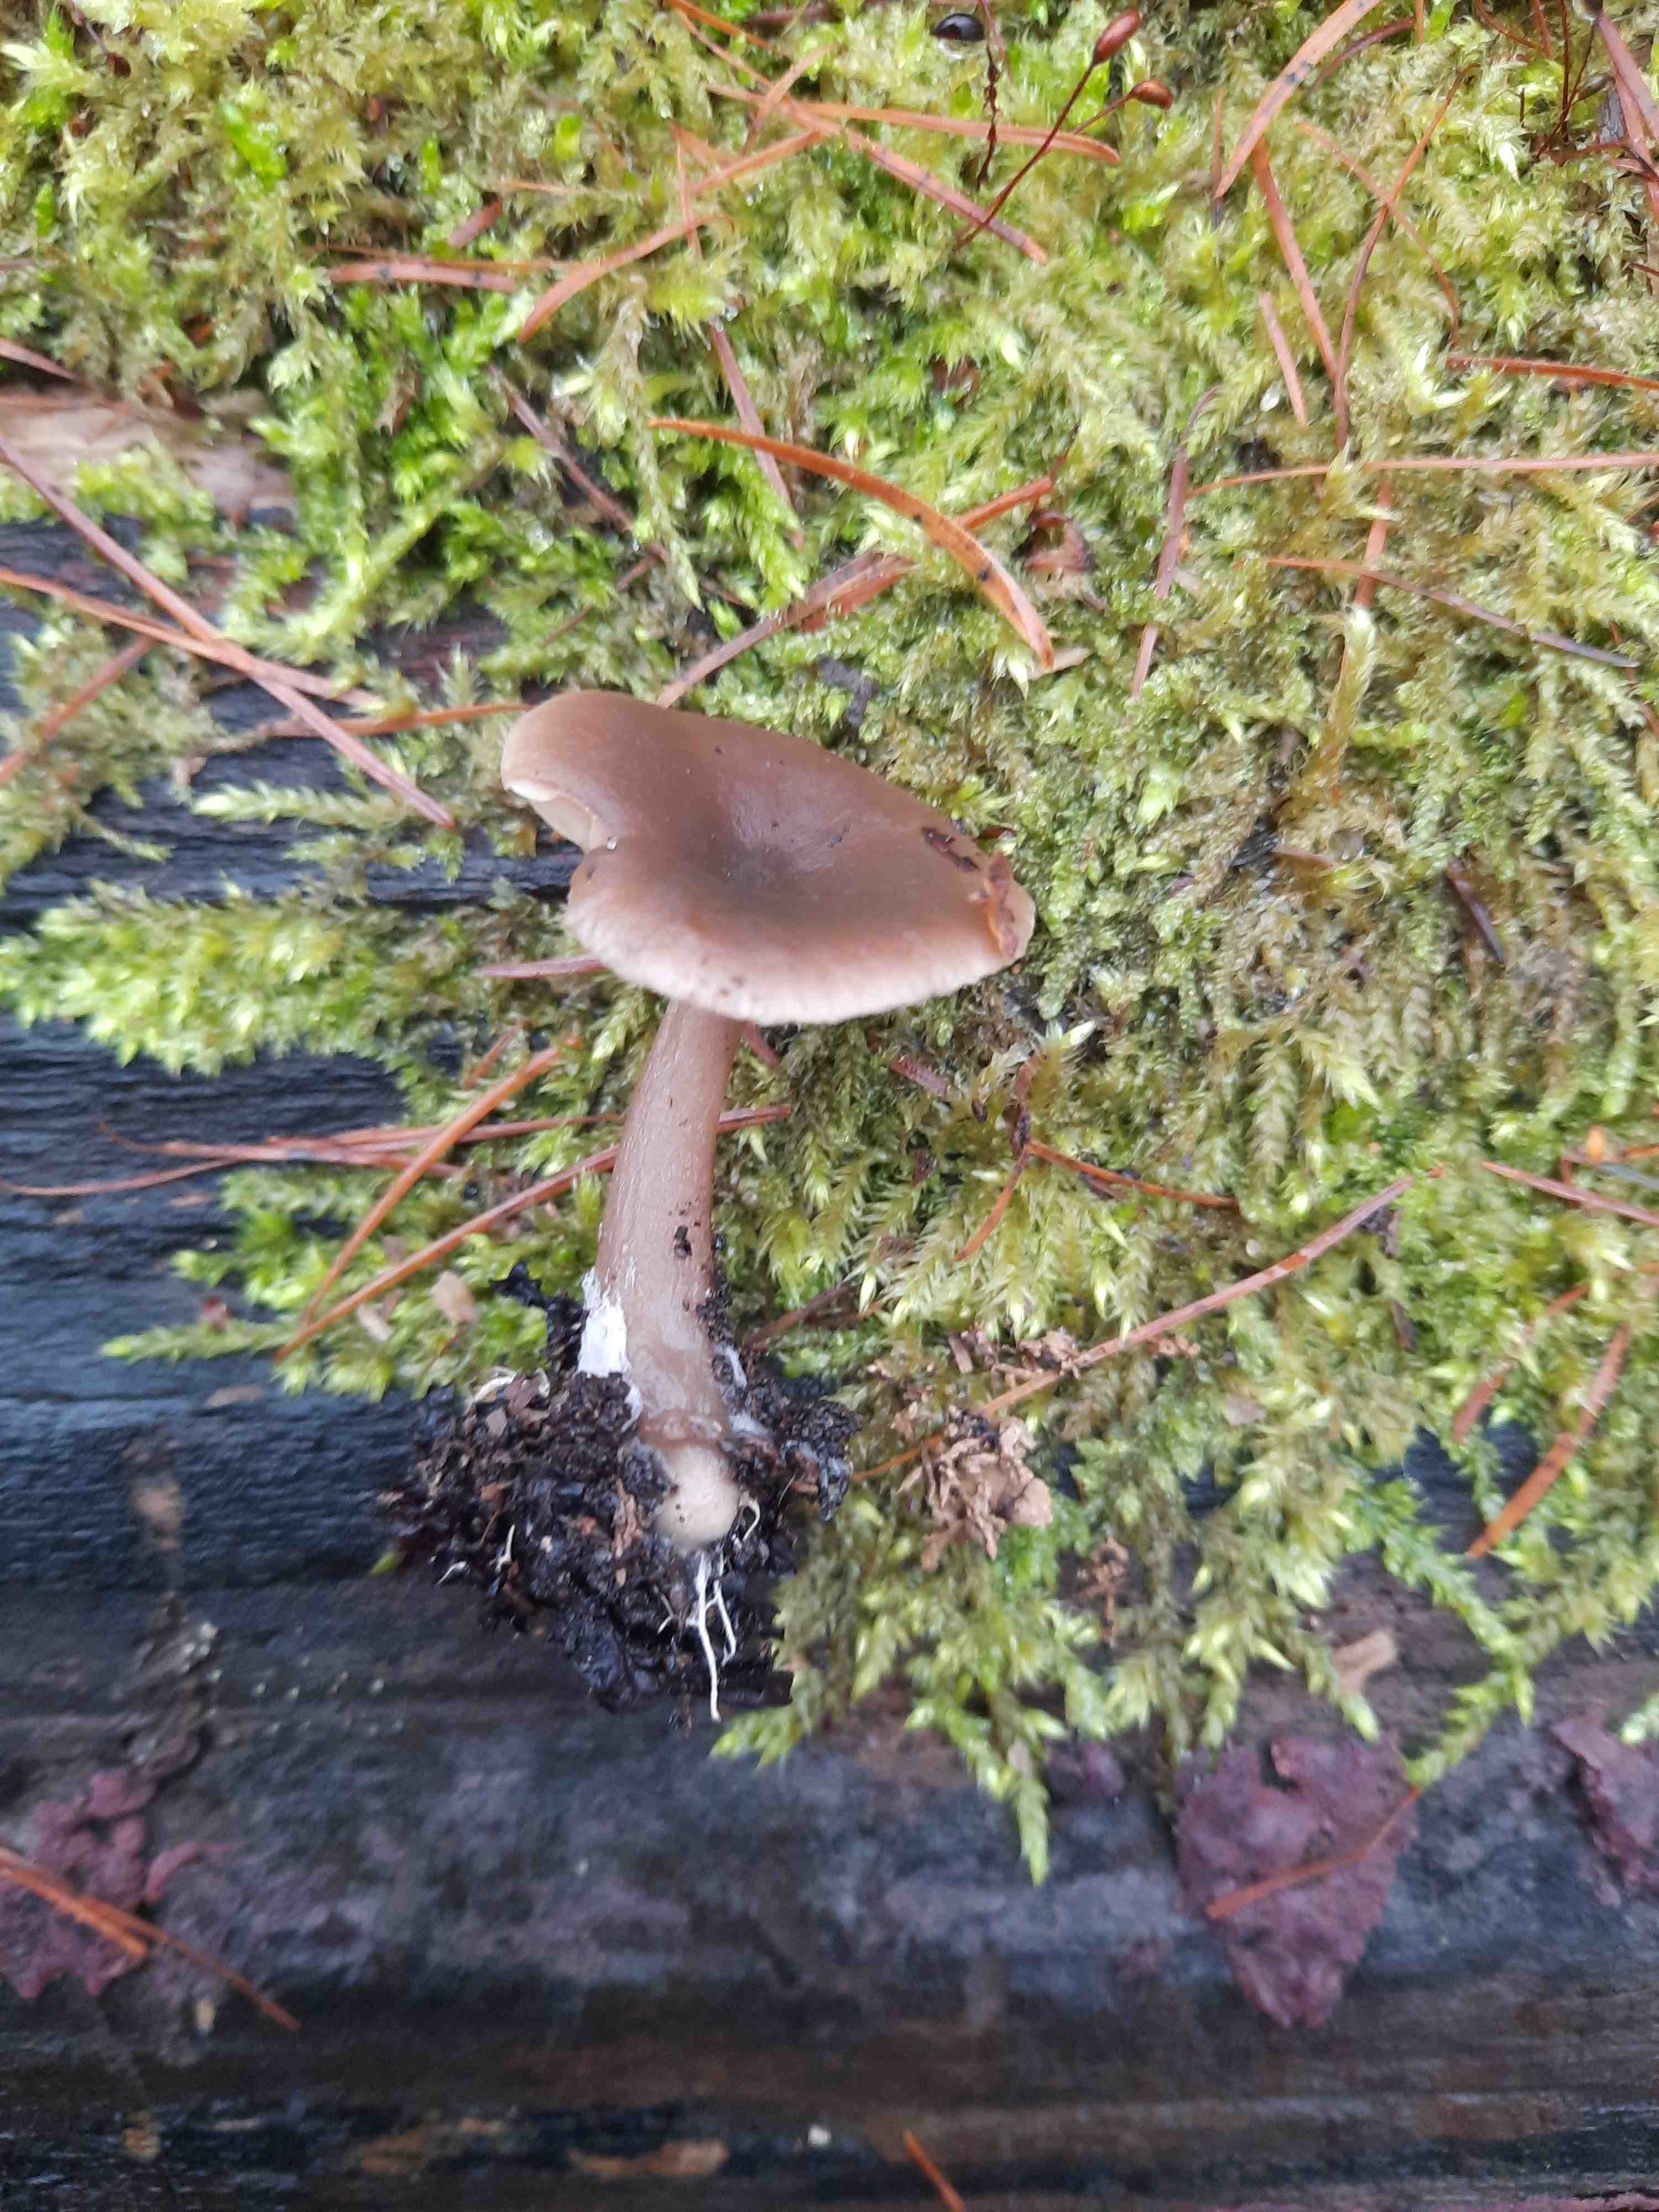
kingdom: Fungi
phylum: Basidiomycota
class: Agaricomycetes
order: Agaricales
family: Pseudoclitocybaceae
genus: Pseudoclitocybe
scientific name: Pseudoclitocybe cyathiformis
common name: almindelig bægertragthat
